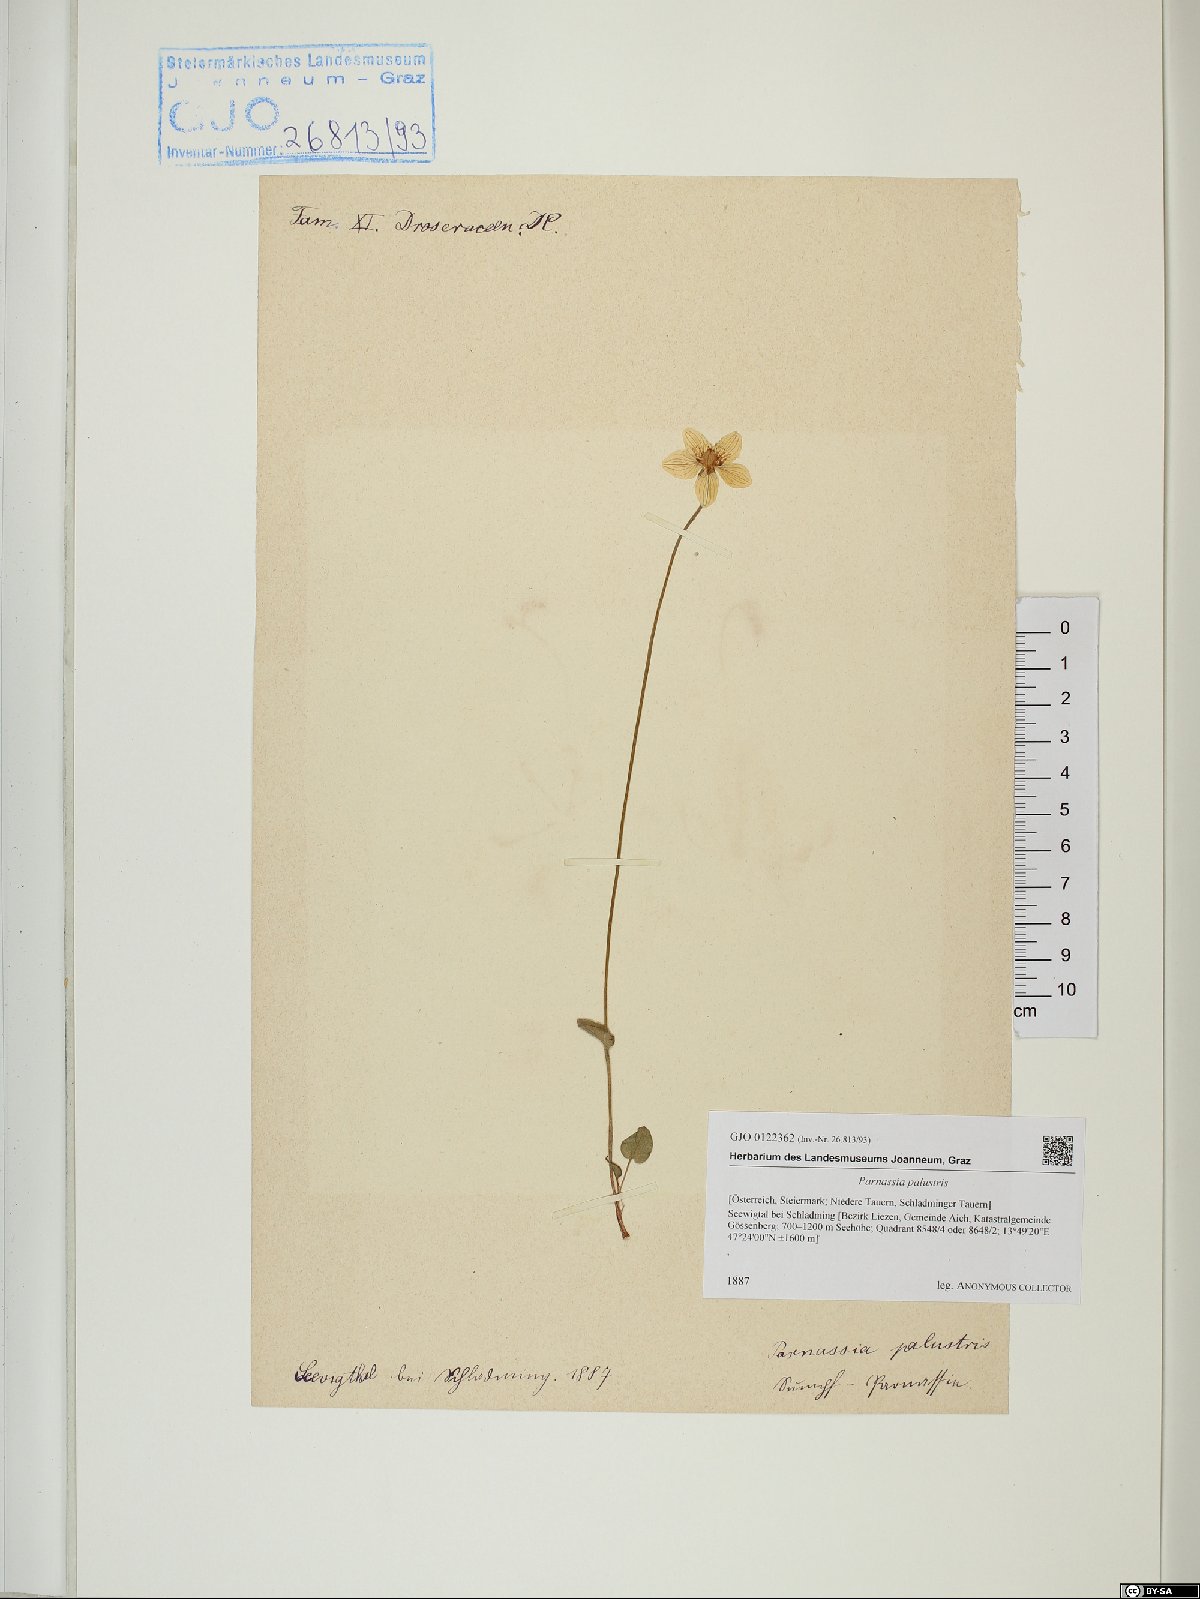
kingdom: Plantae
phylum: Tracheophyta
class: Magnoliopsida
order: Celastrales
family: Parnassiaceae
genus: Parnassia
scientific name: Parnassia palustris
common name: Grass-of-parnassus
